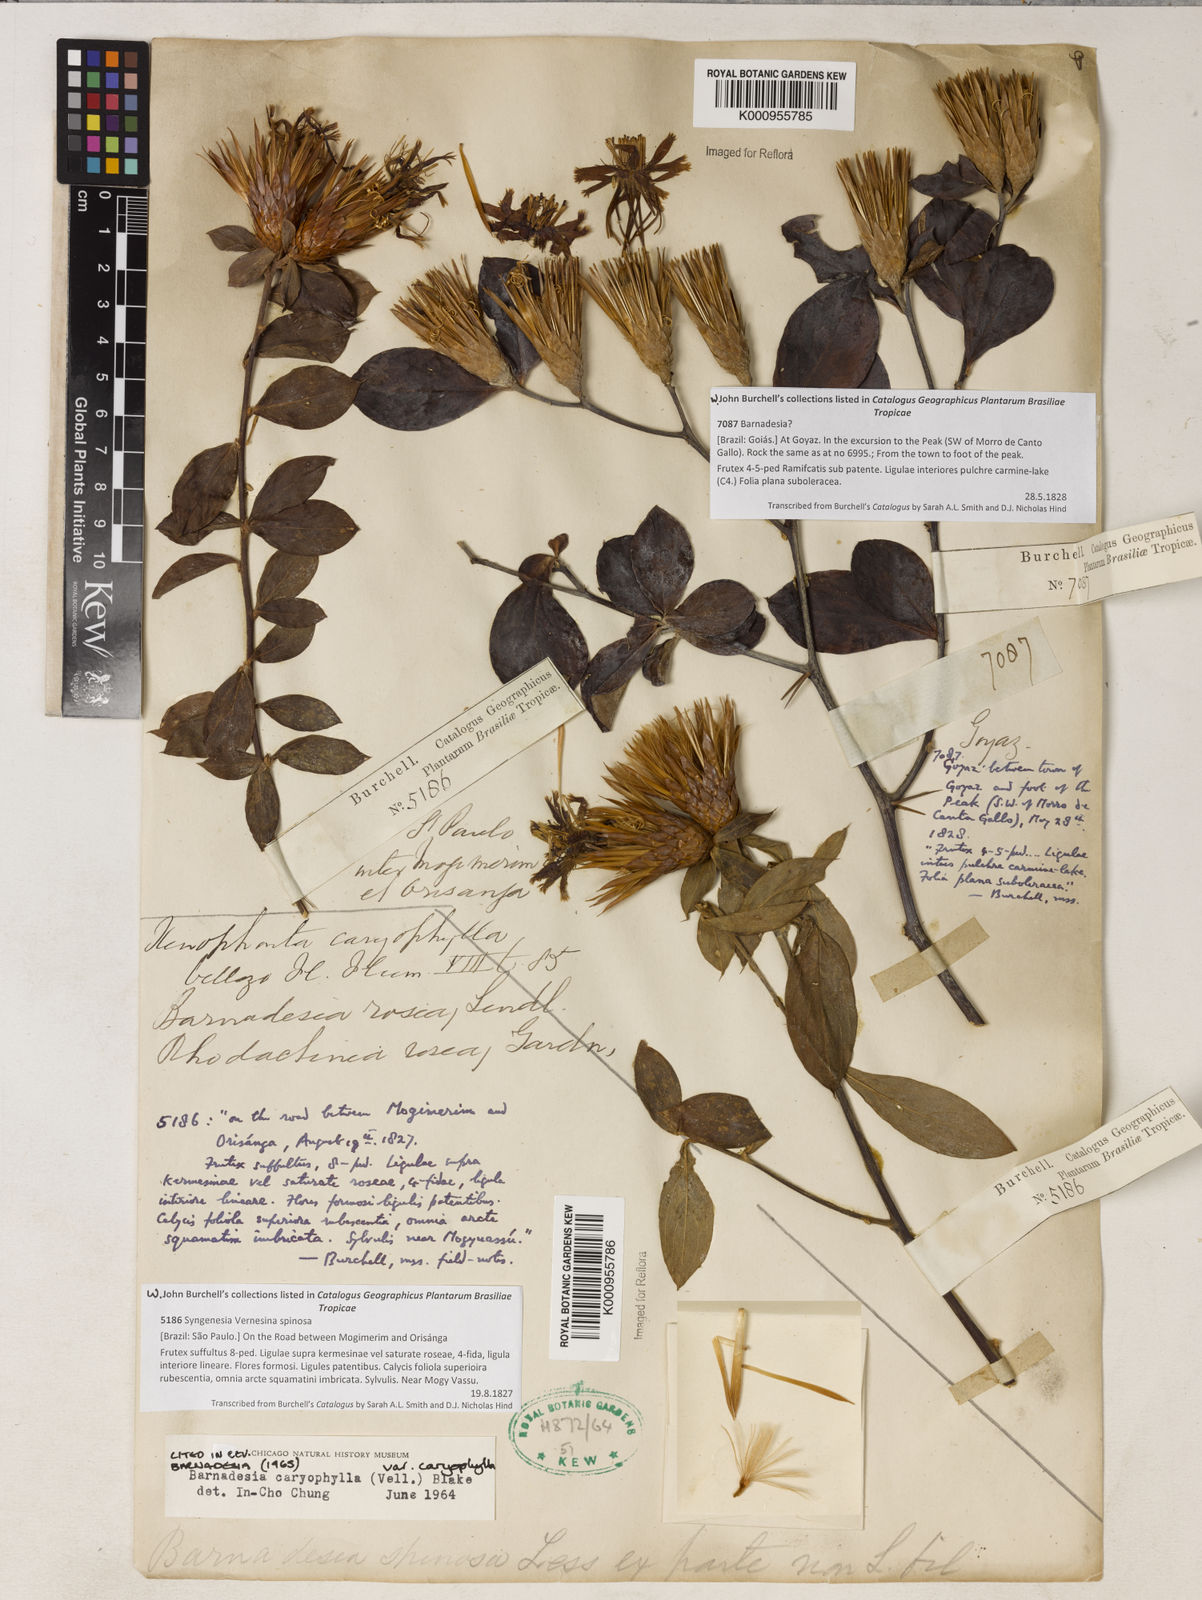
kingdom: Plantae
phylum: Tracheophyta
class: Magnoliopsida
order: Asterales
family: Asteraceae
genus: Barnadesia
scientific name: Barnadesia caryophylla
